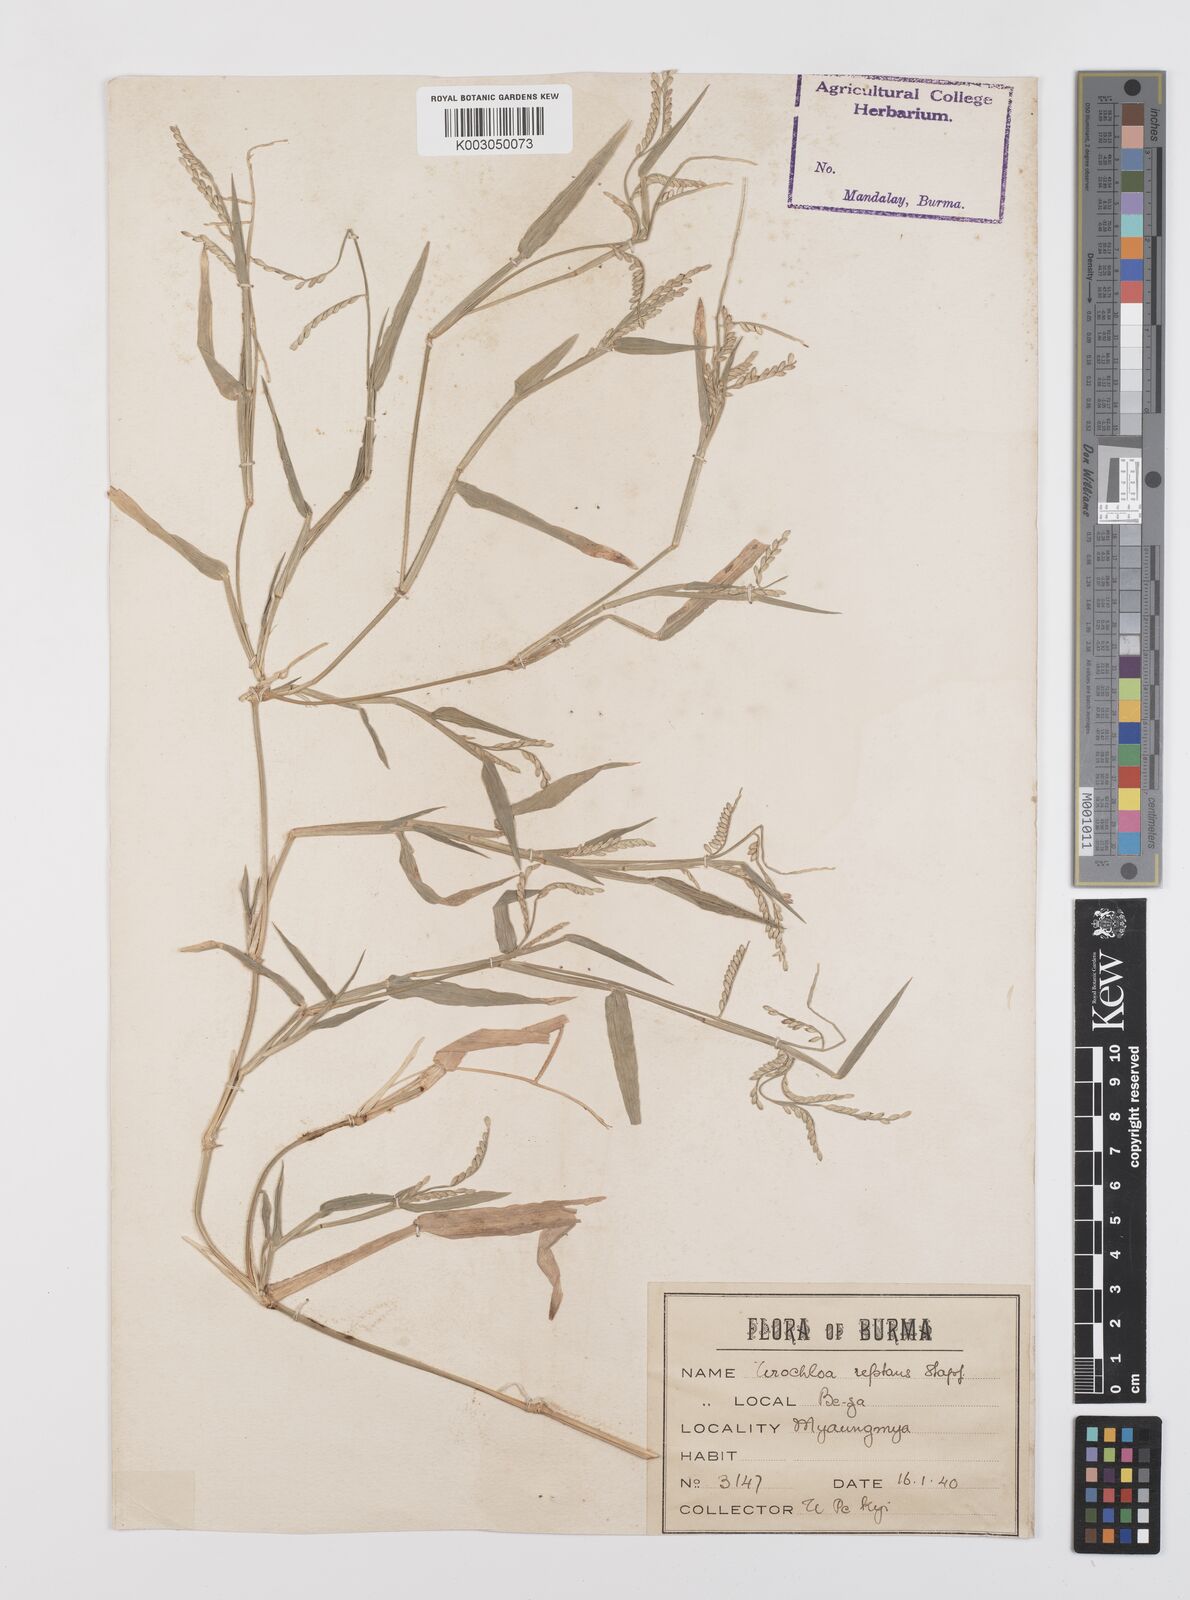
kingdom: Plantae
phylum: Tracheophyta
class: Liliopsida
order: Poales
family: Poaceae
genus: Urochloa
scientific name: Urochloa distachyos
